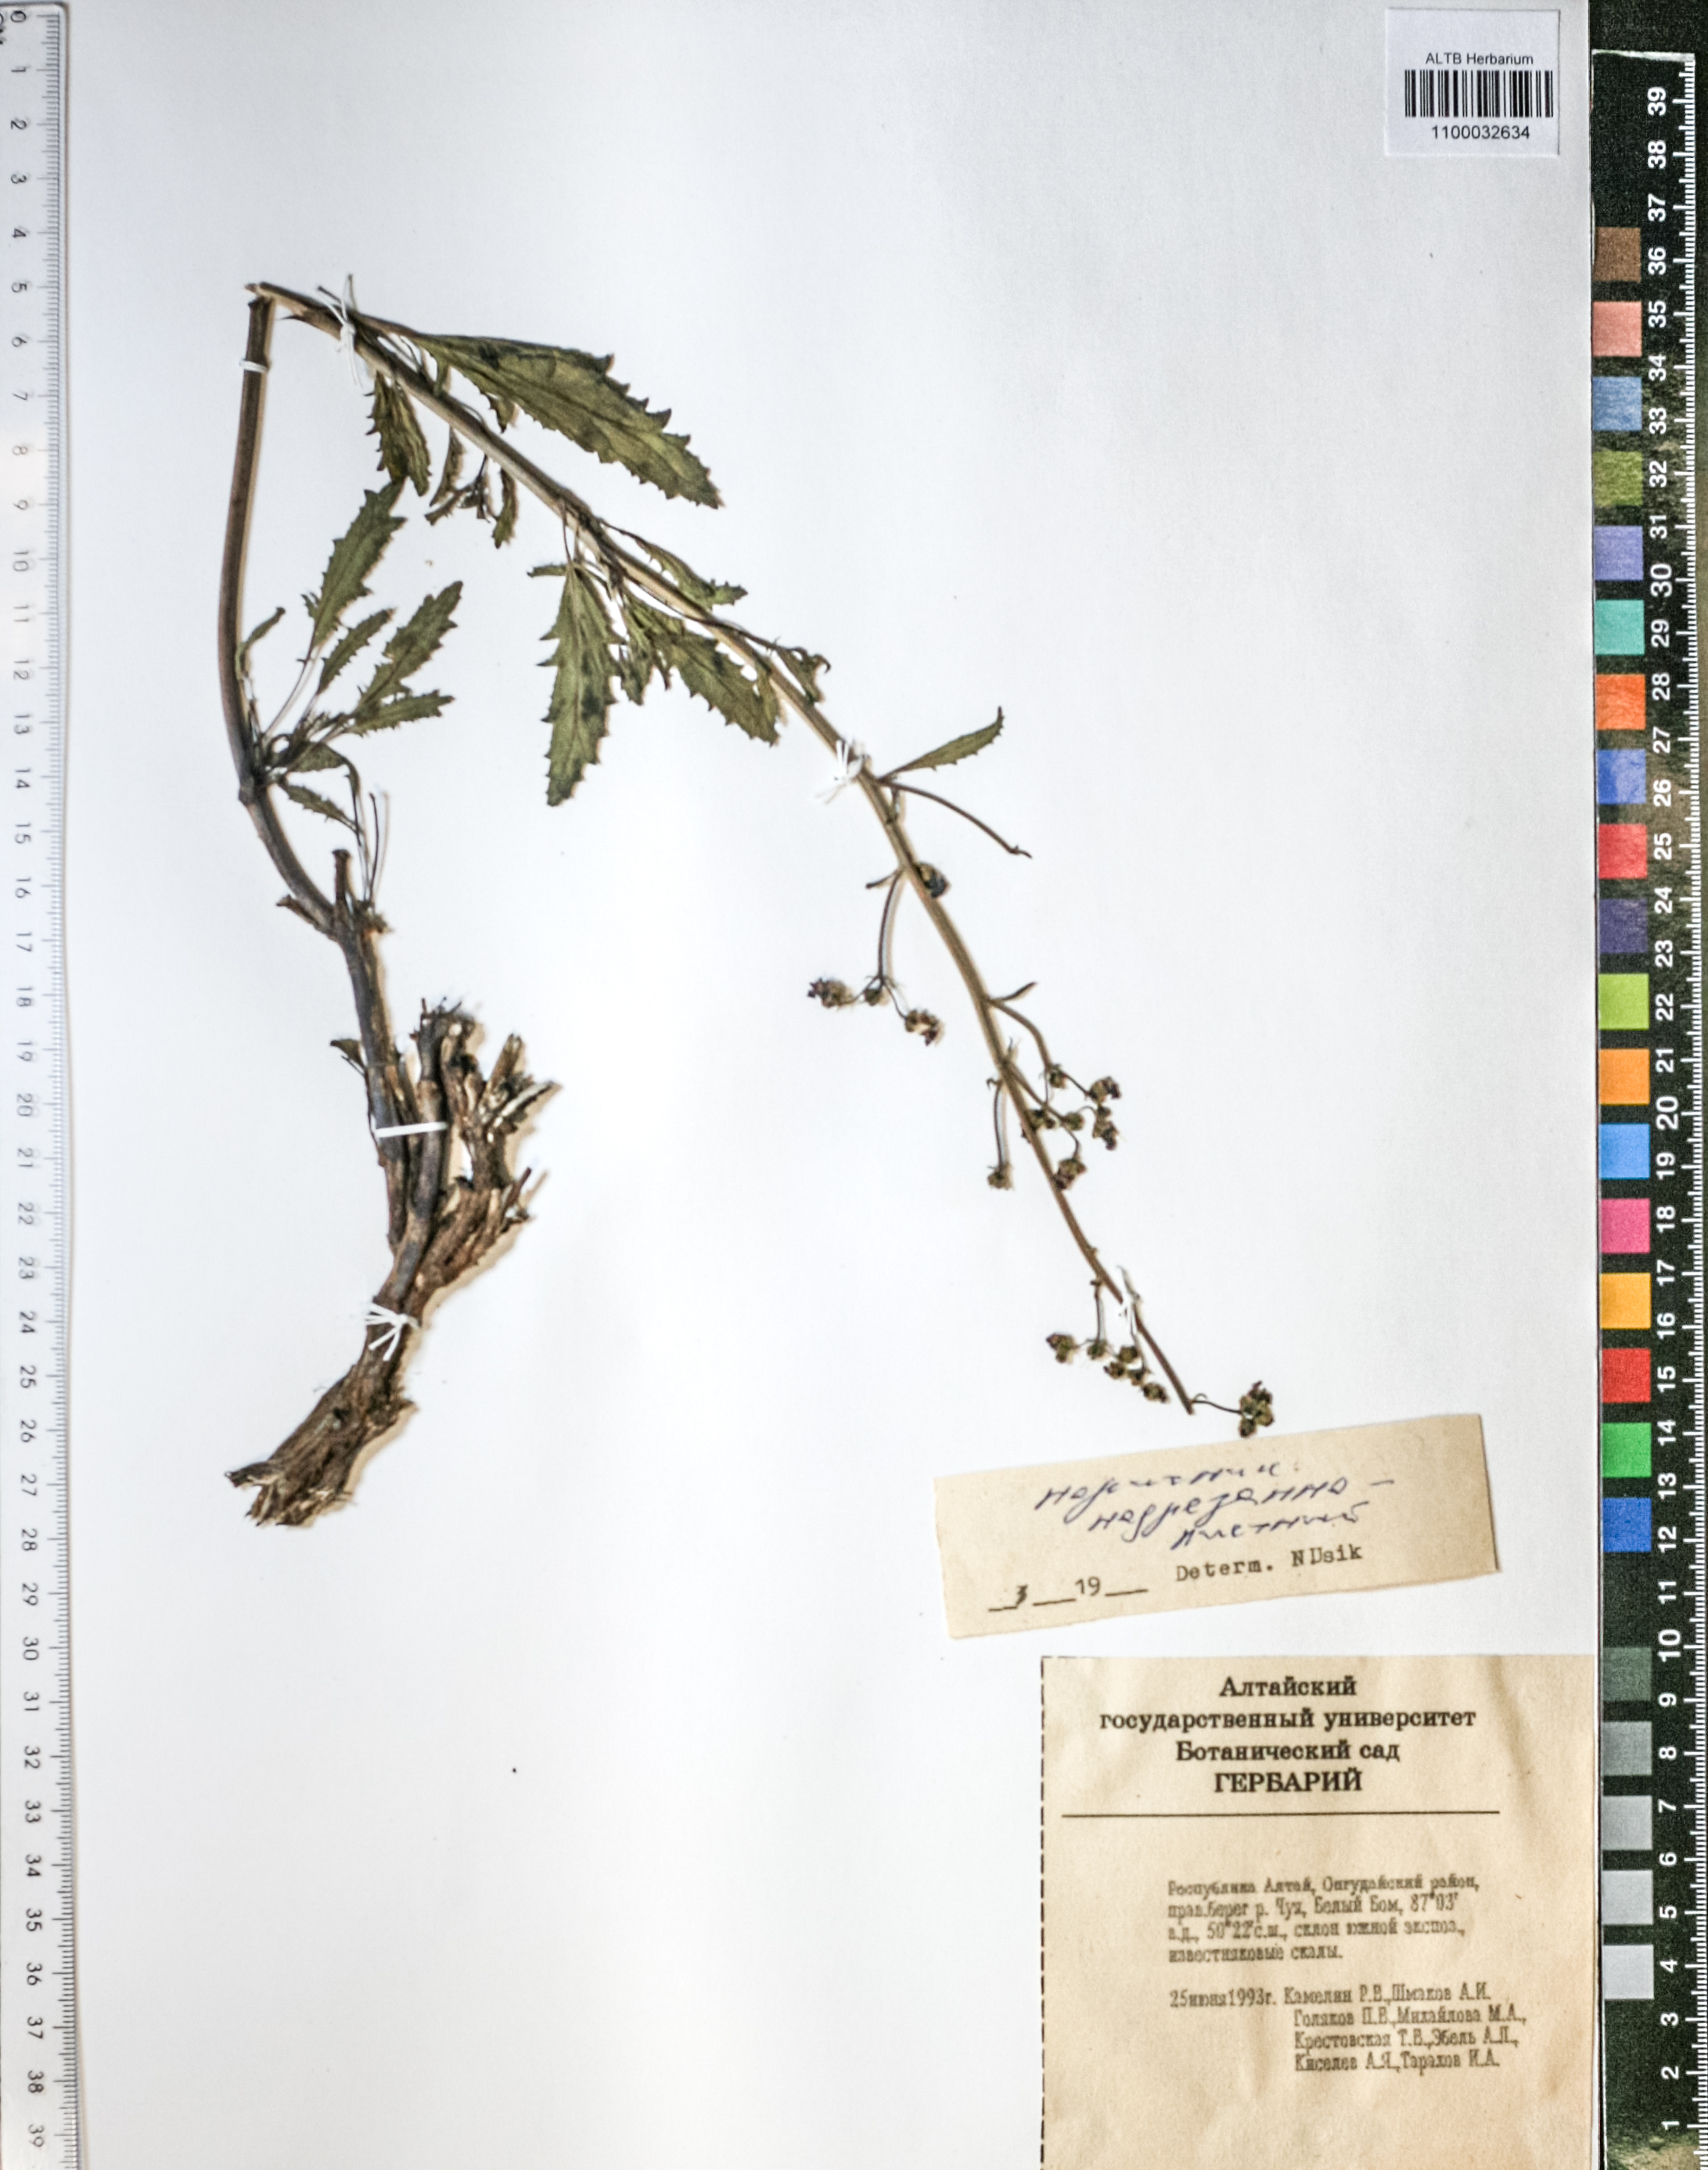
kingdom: Plantae
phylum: Tracheophyta
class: Magnoliopsida
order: Lamiales
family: Scrophulariaceae
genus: Scrophularia
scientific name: Scrophularia incisa
